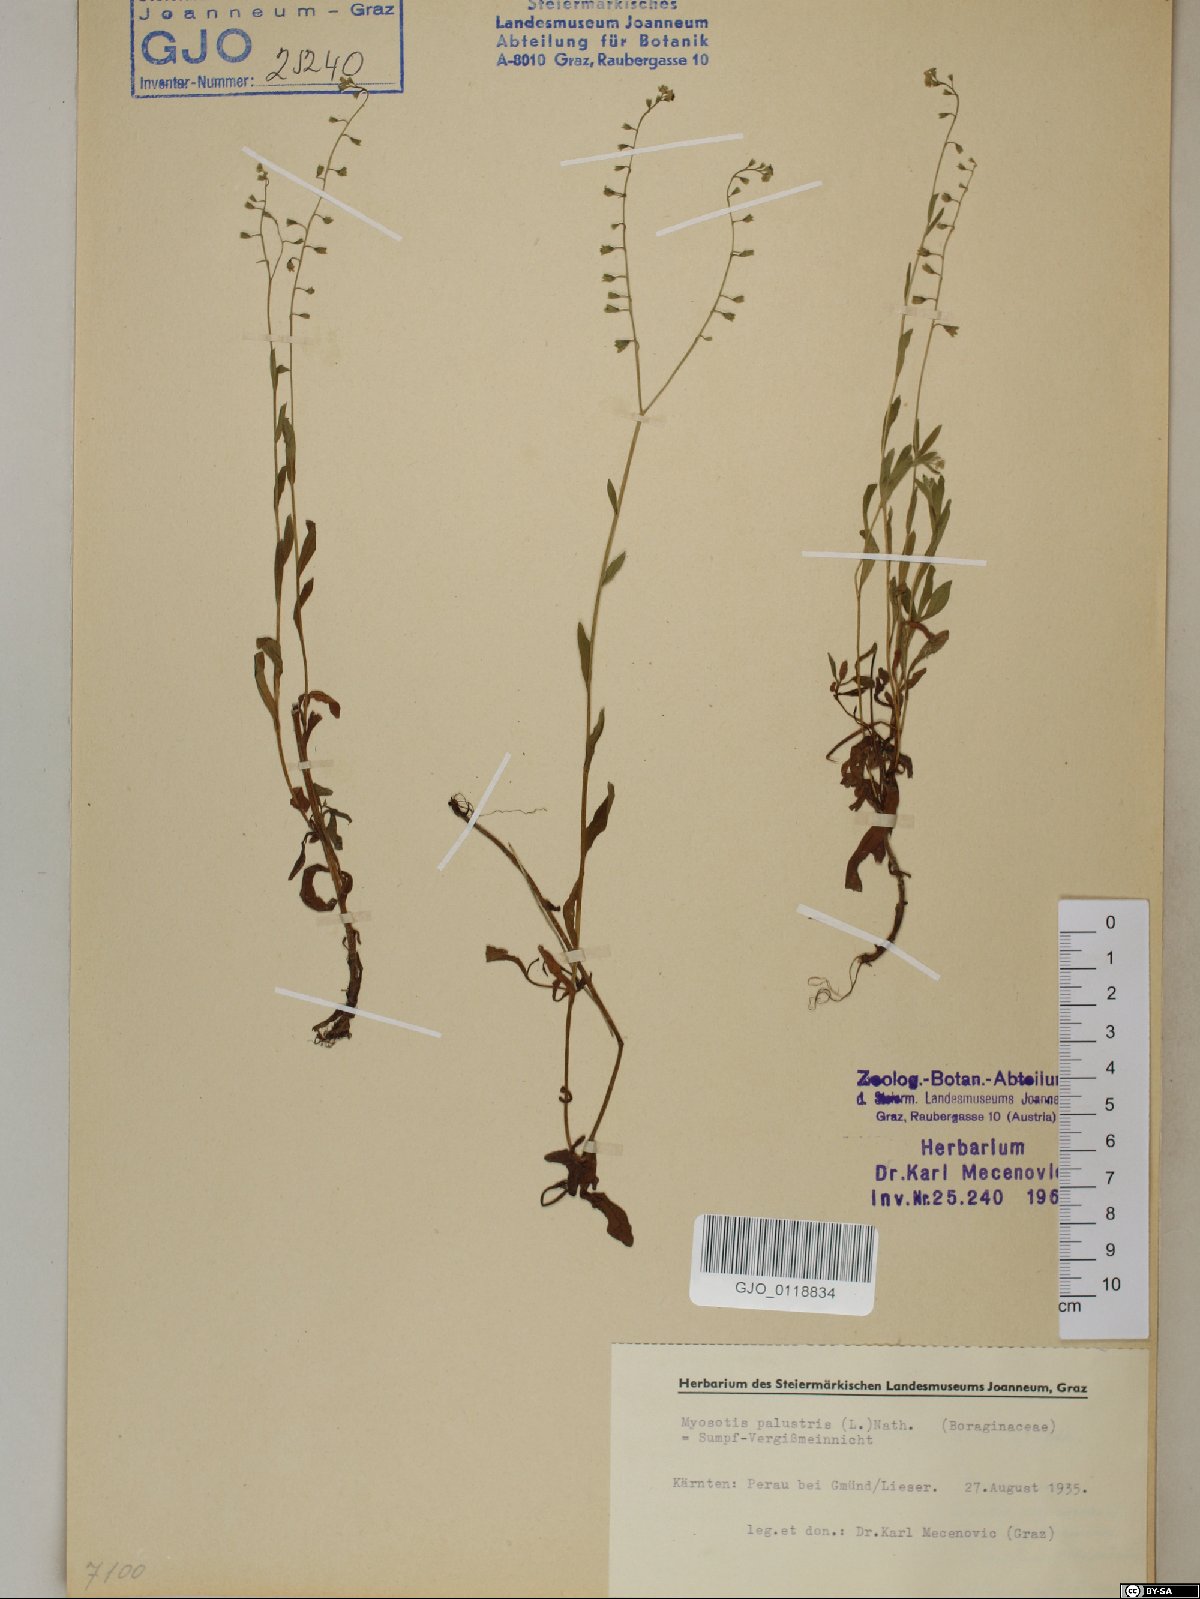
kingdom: Plantae
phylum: Tracheophyta
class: Magnoliopsida
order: Boraginales
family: Boraginaceae
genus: Myosotis
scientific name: Myosotis scorpioides
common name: Water forget-me-not
